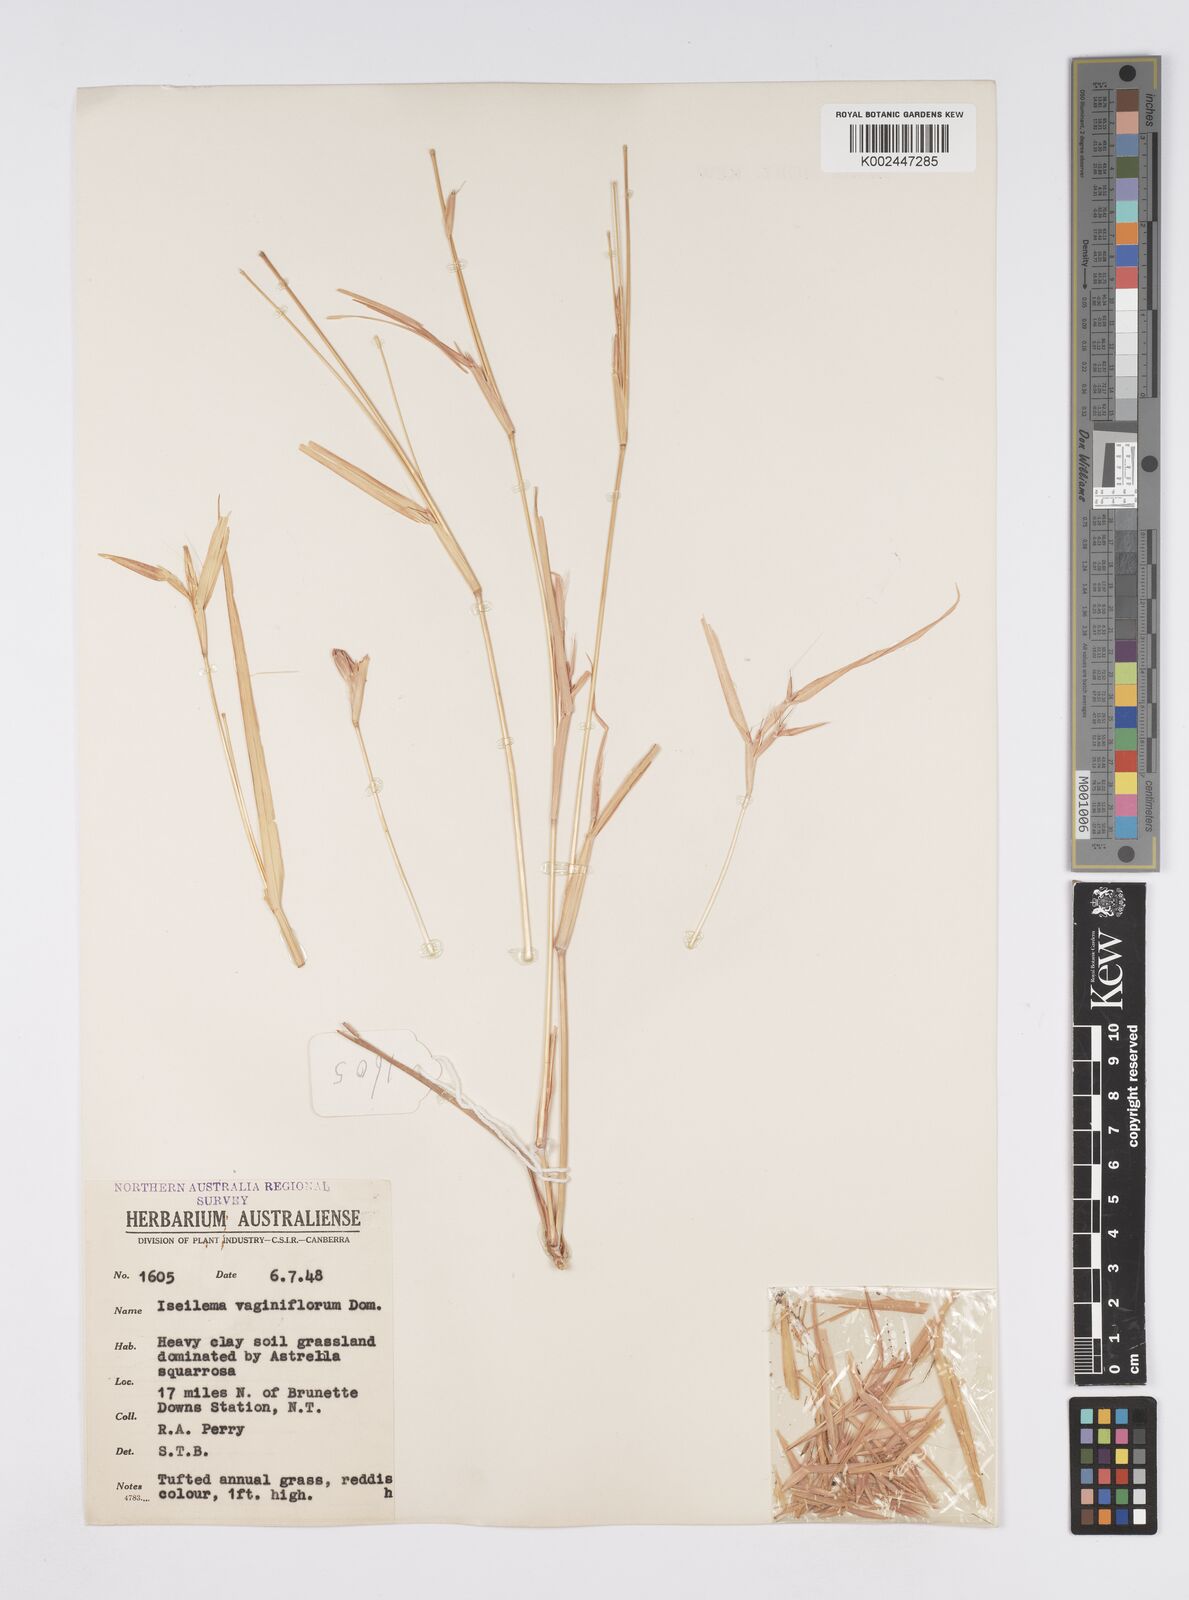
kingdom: Plantae
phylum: Tracheophyta
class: Liliopsida
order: Poales
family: Poaceae
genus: Iseilema
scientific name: Iseilema vaginiflorum
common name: Red flinders grass
